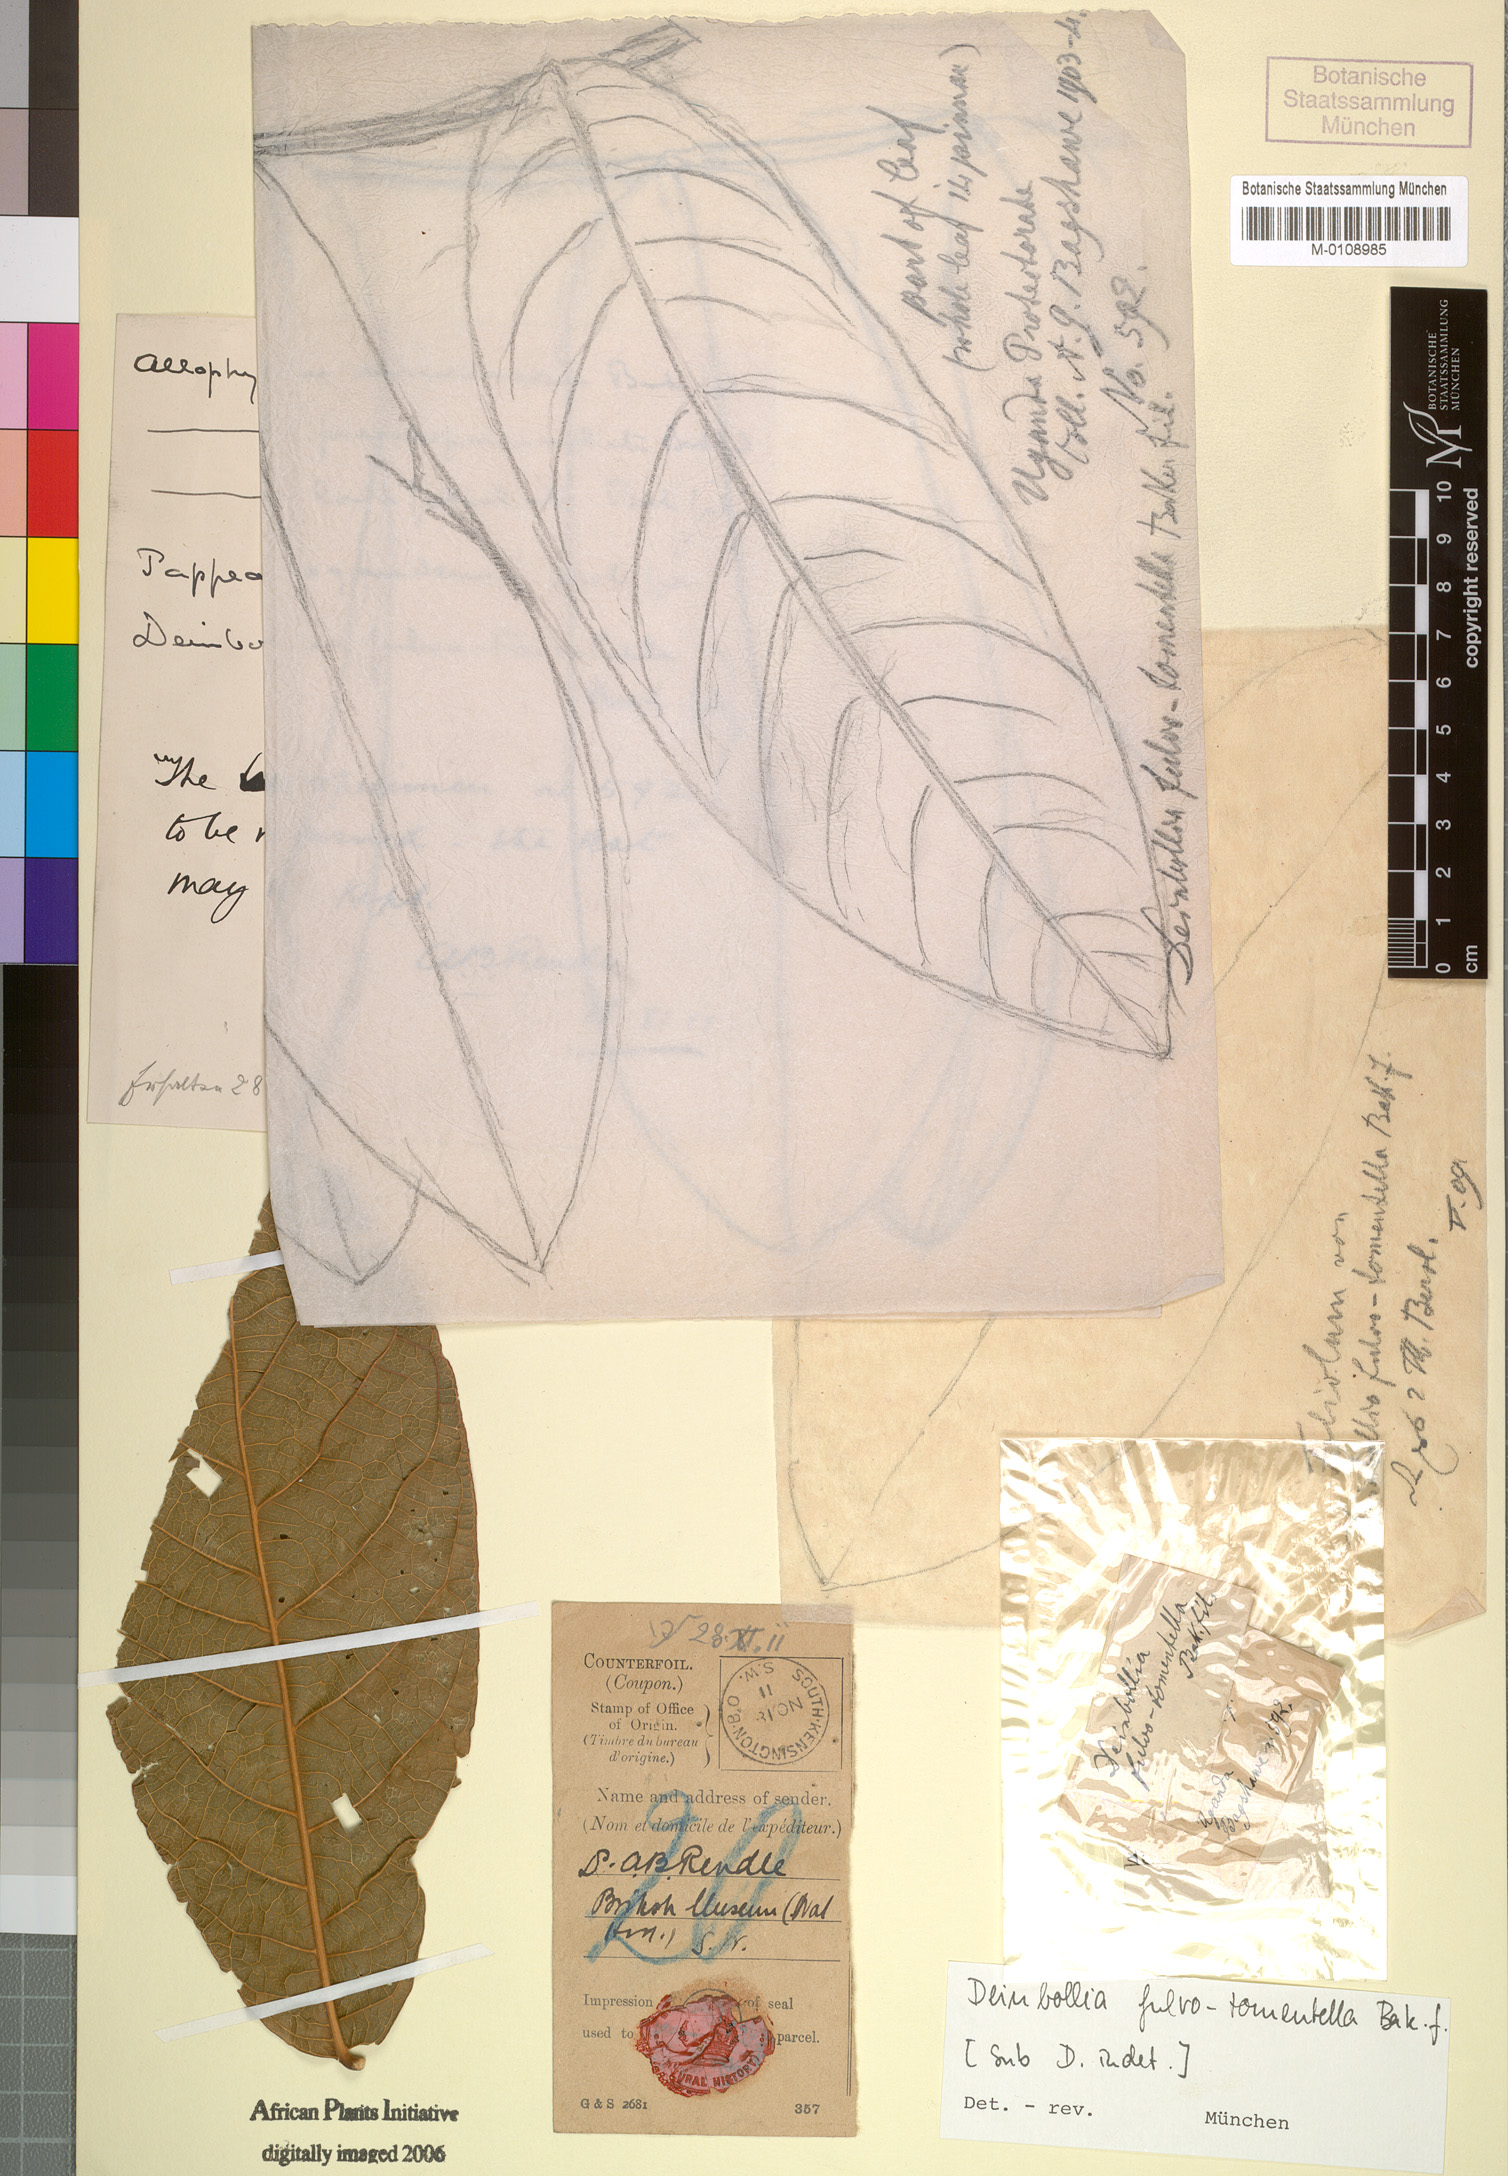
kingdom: Plantae
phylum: Tracheophyta
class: Magnoliopsida
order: Sapindales
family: Sapindaceae
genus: Deinbollia
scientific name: Deinbollia fulvotomentella
